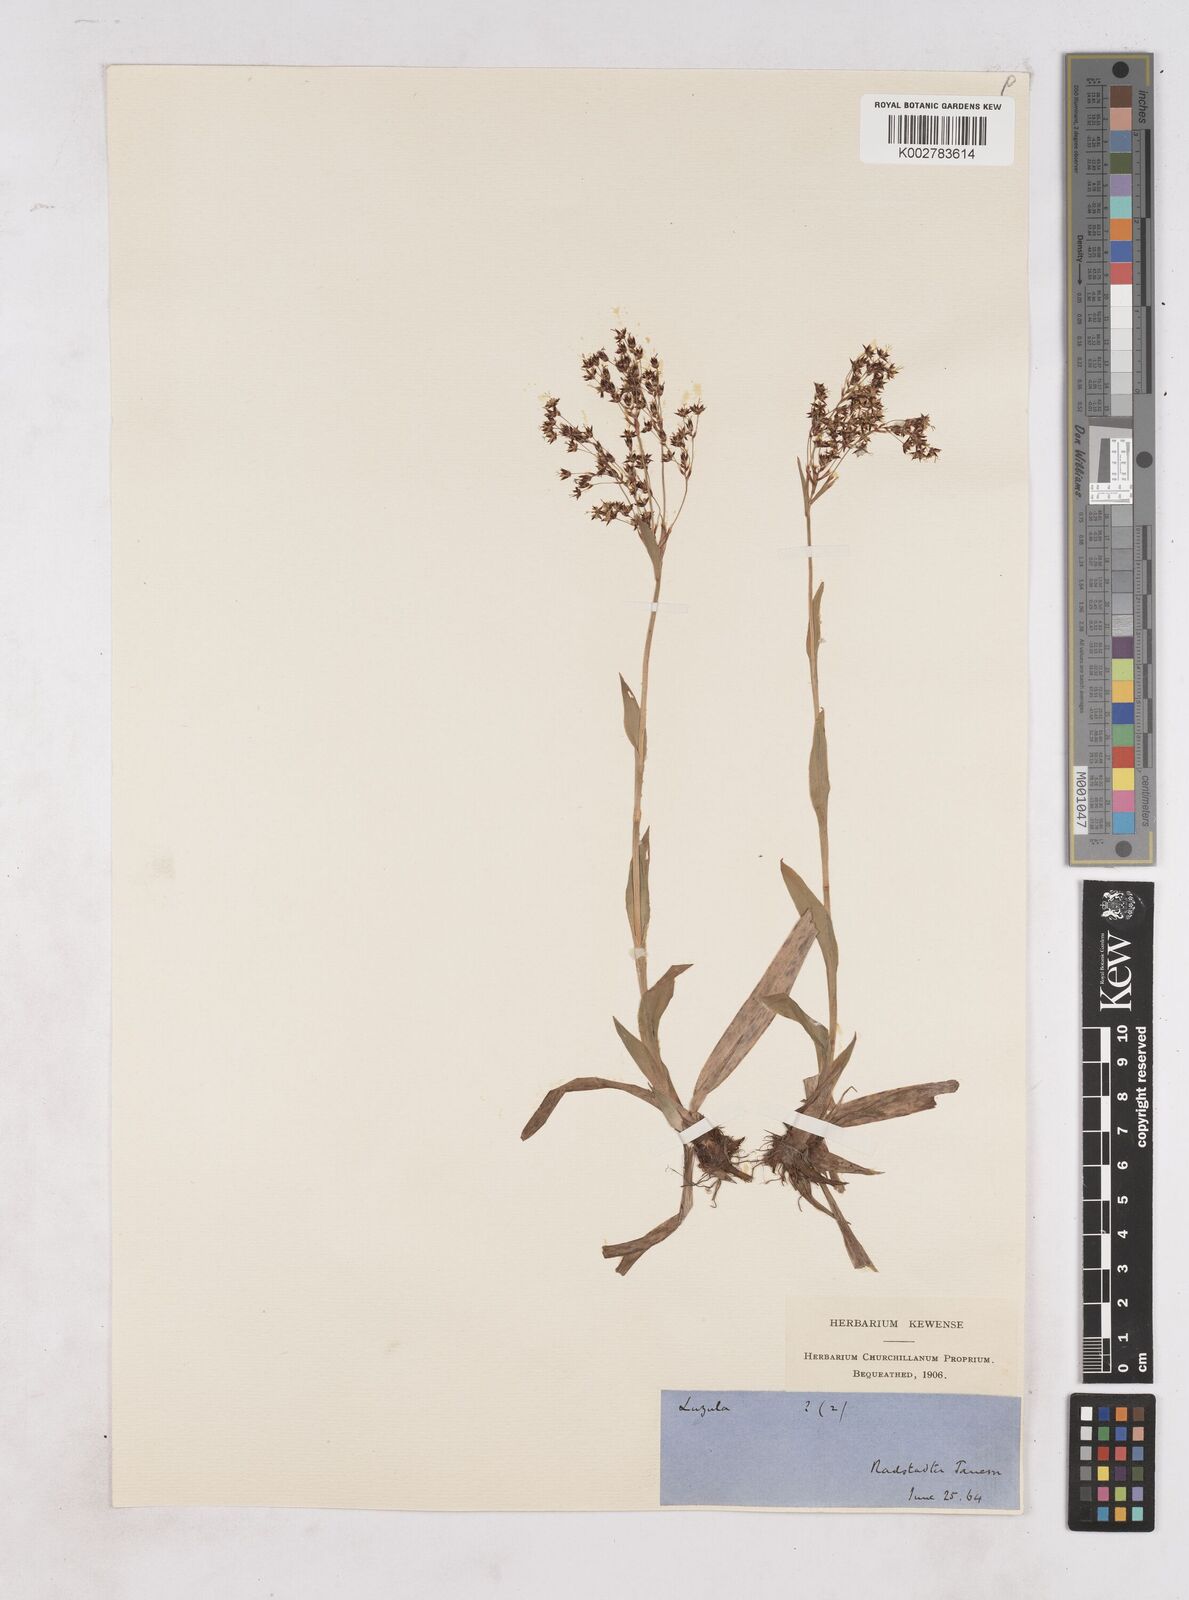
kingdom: Plantae
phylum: Tracheophyta
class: Liliopsida
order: Poales
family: Juncaceae
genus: Luzula
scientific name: Luzula
